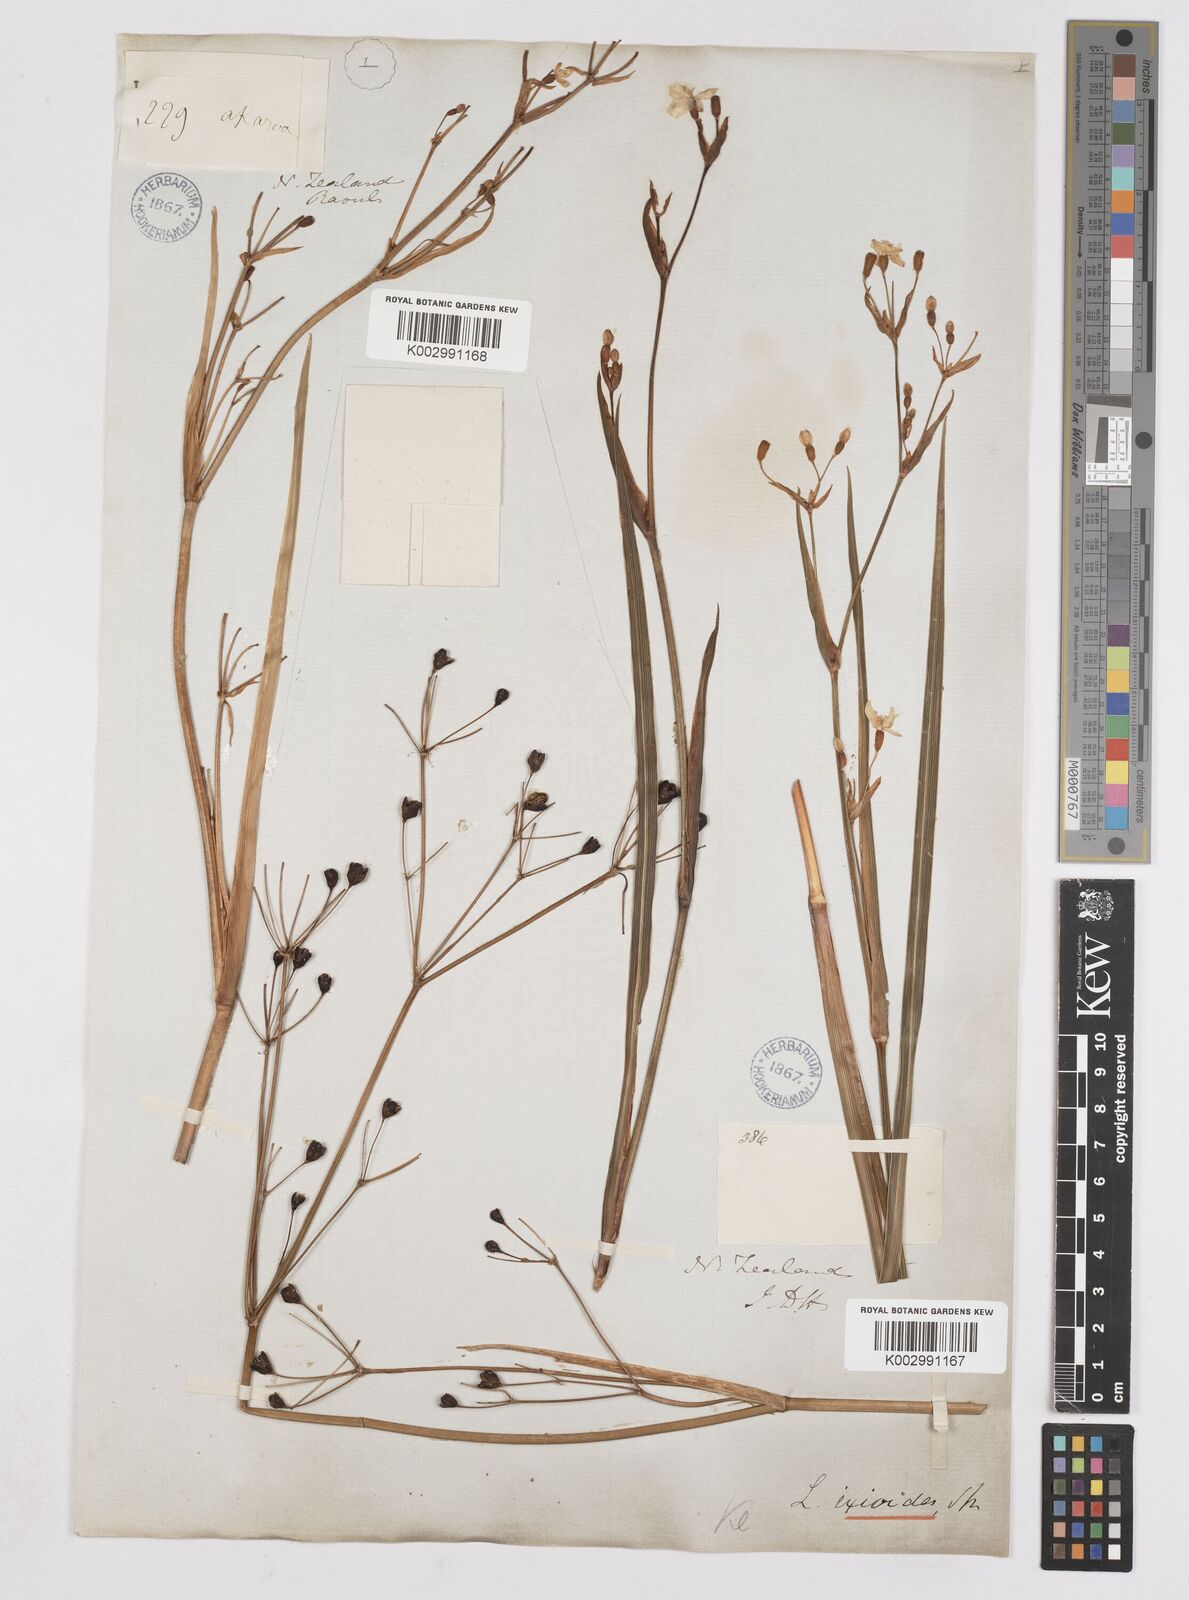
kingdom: Plantae
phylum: Tracheophyta
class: Liliopsida
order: Asparagales
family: Iridaceae
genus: Libertia
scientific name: Libertia
